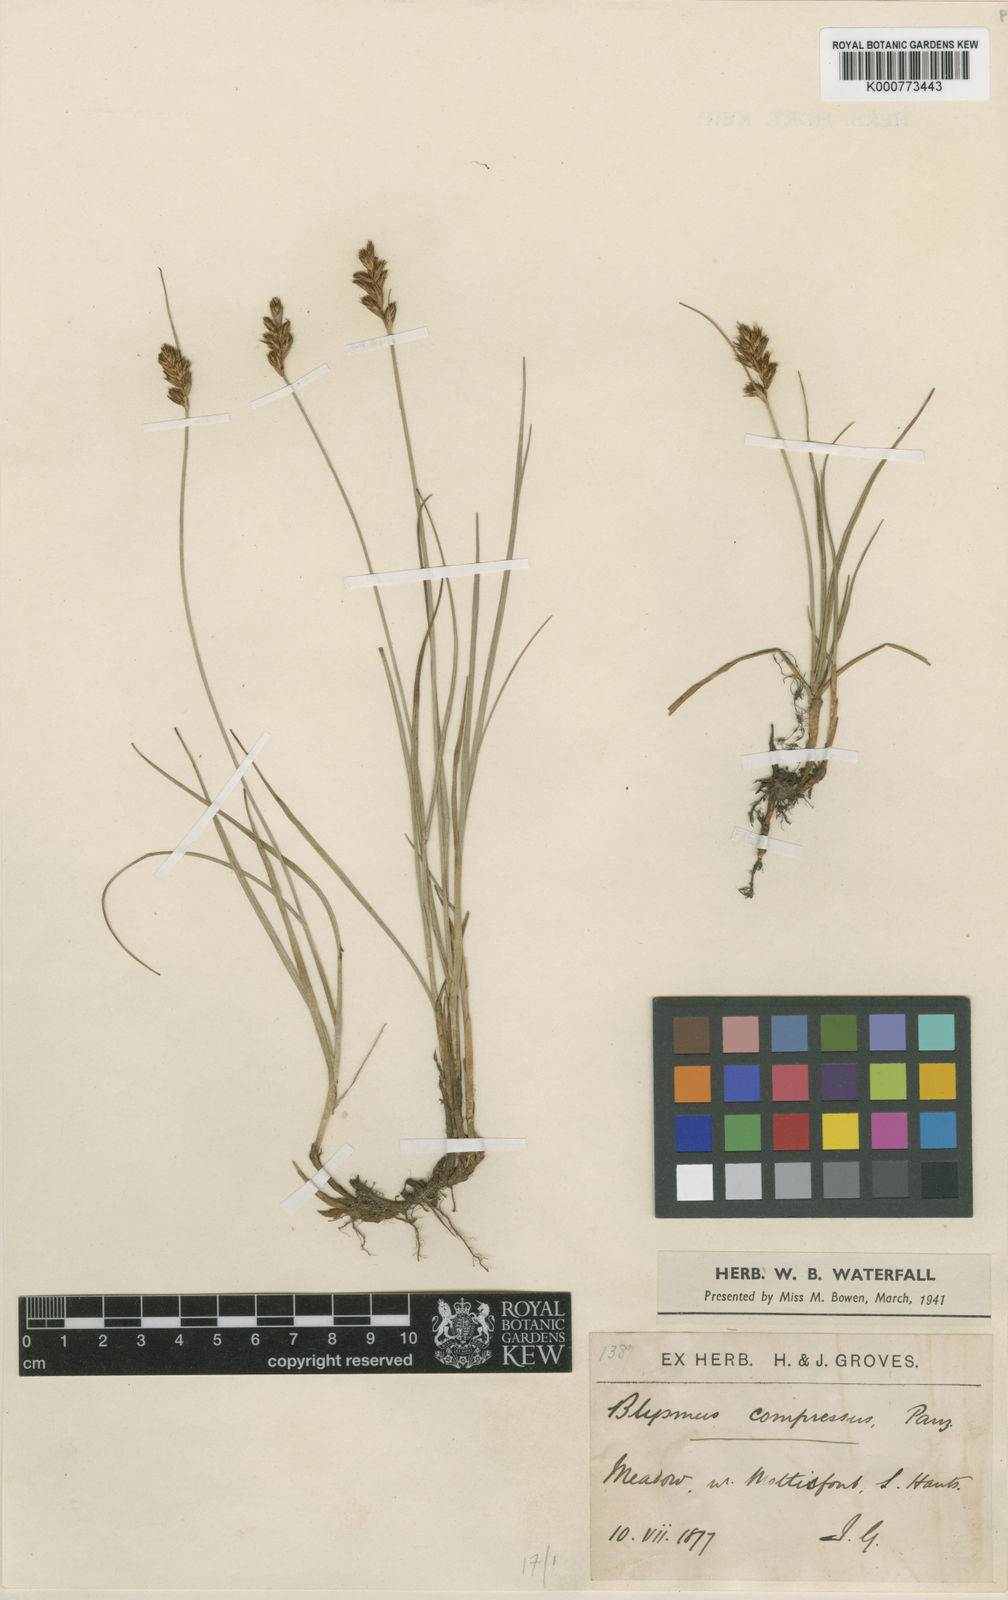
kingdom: Plantae
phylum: Tracheophyta
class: Liliopsida
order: Poales
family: Cyperaceae
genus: Blysmus
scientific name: Blysmus compressus
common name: Flat-sedge
